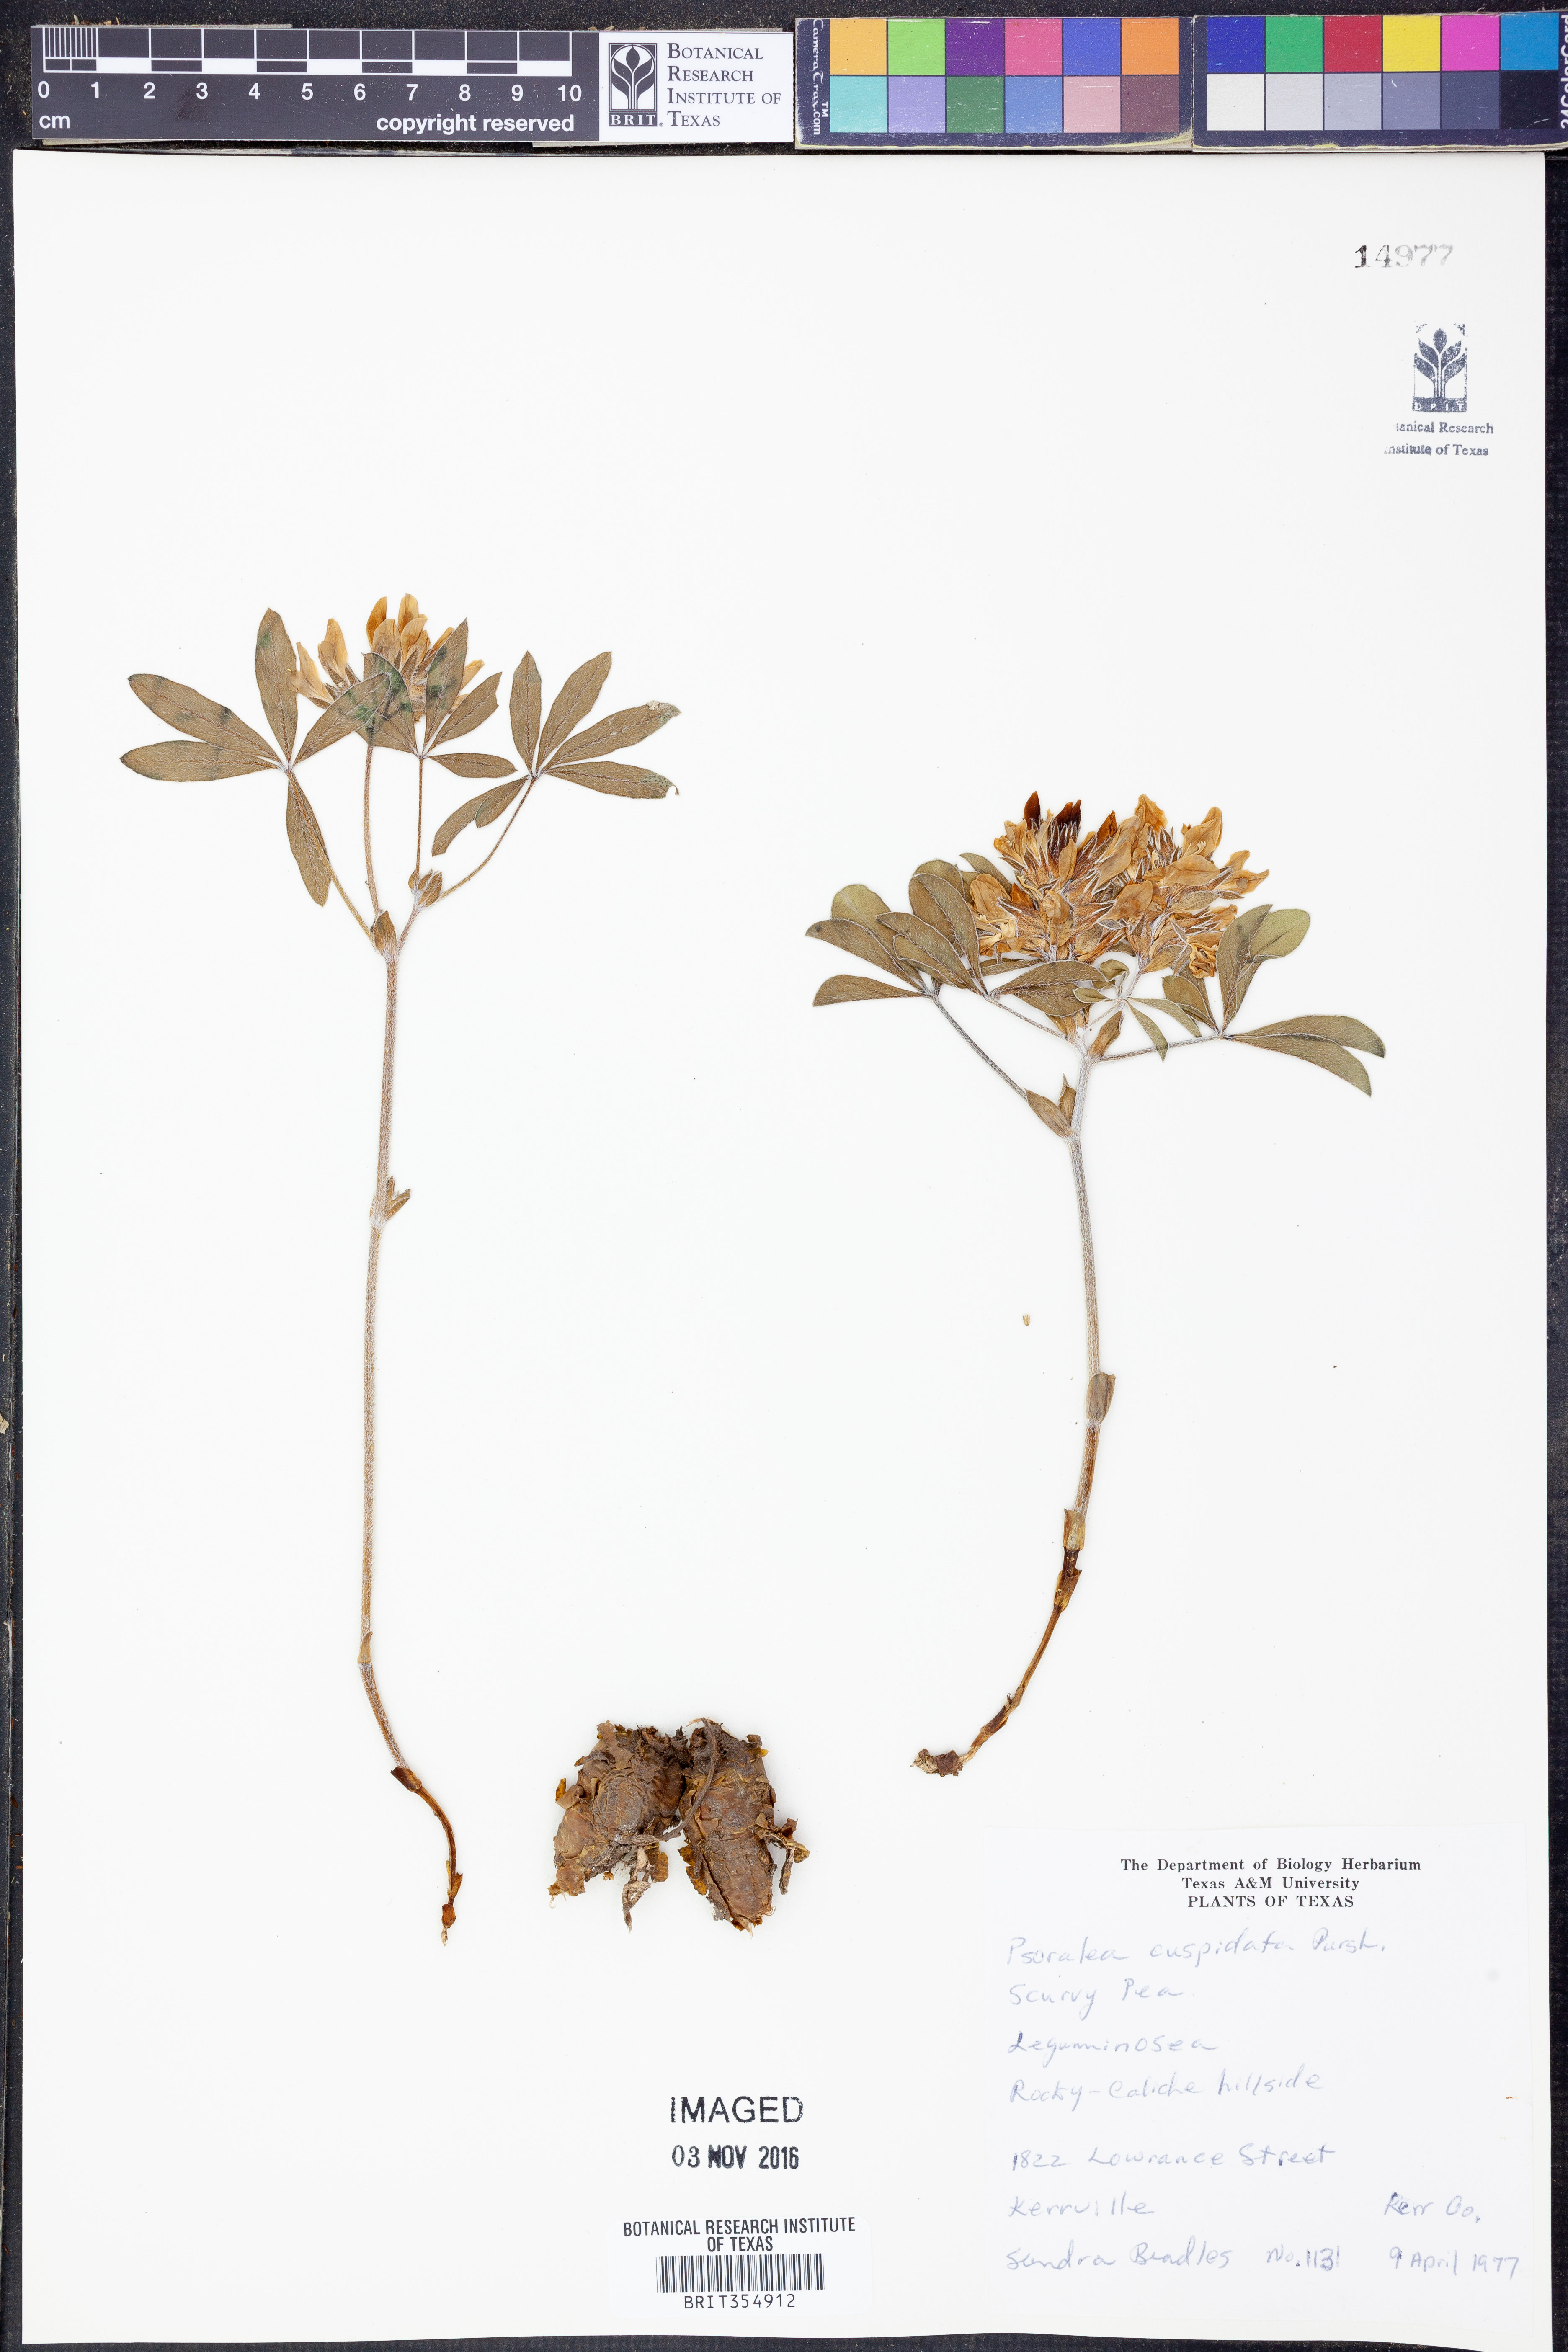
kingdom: Plantae
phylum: Tracheophyta
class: Magnoliopsida
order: Fabales
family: Fabaceae
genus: Pediomelum
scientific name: Pediomelum cuspidatum
